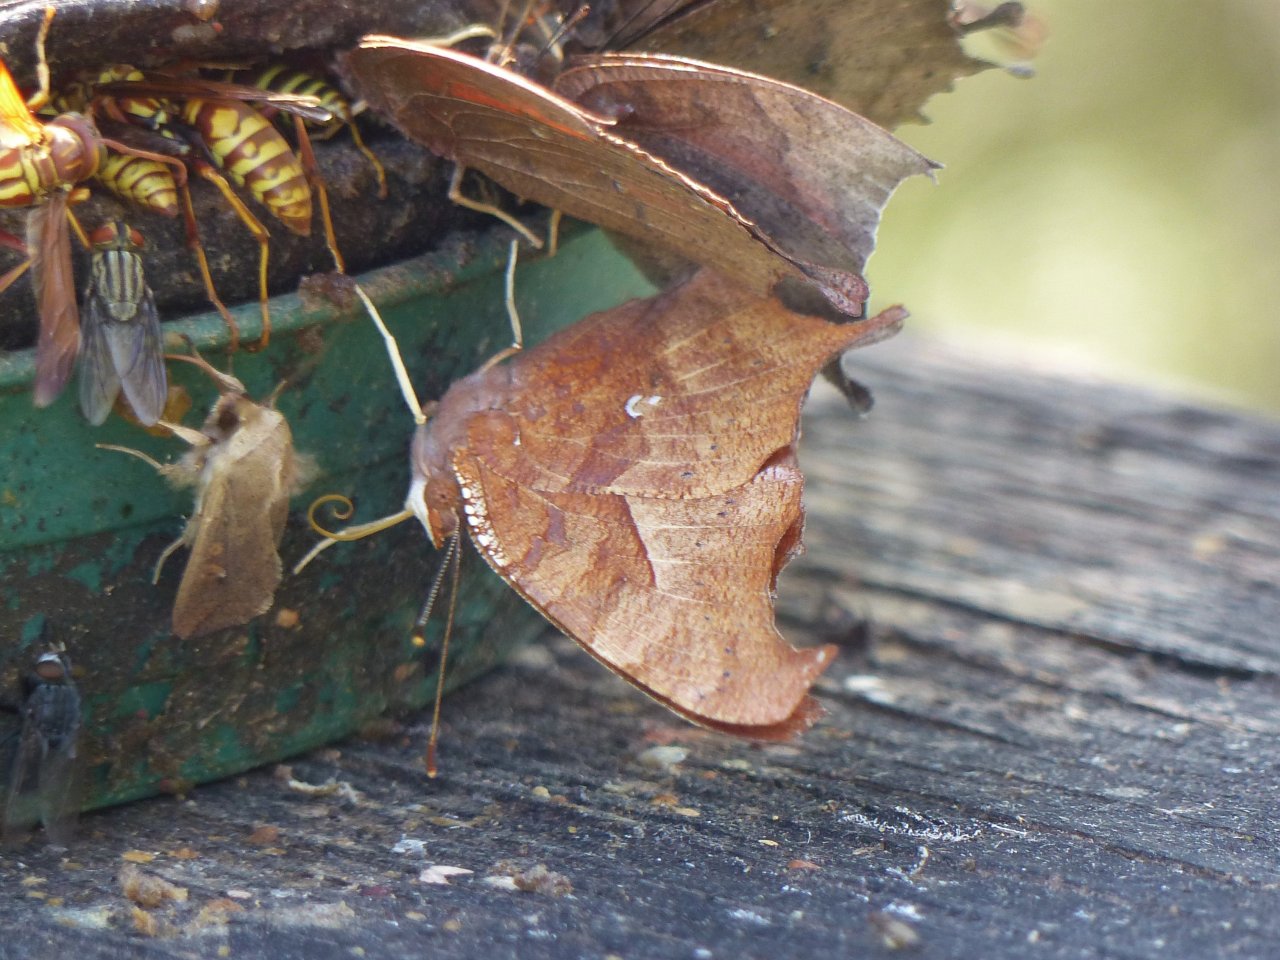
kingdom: Animalia
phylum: Arthropoda
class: Insecta
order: Lepidoptera
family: Nymphalidae
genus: Polygonia
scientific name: Polygonia interrogationis
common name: Question Mark
